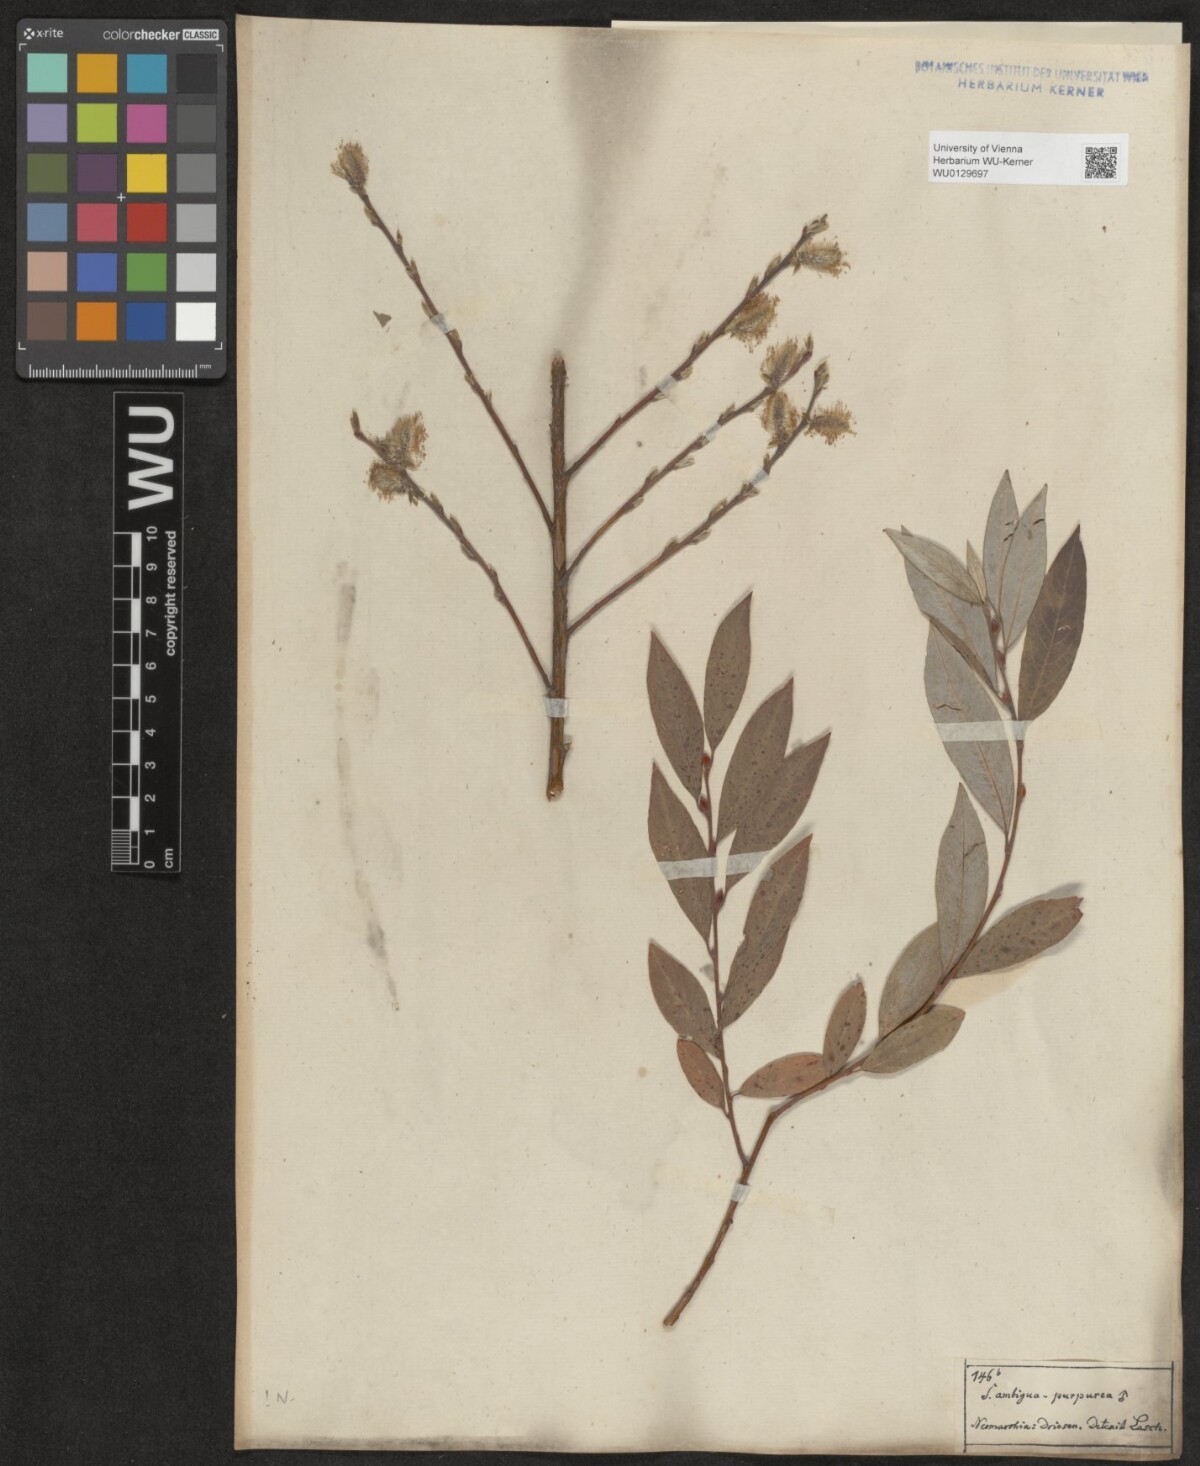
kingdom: Plantae
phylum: Tracheophyta
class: Magnoliopsida
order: Malpighiales
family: Salicaceae
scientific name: Salicaceae
